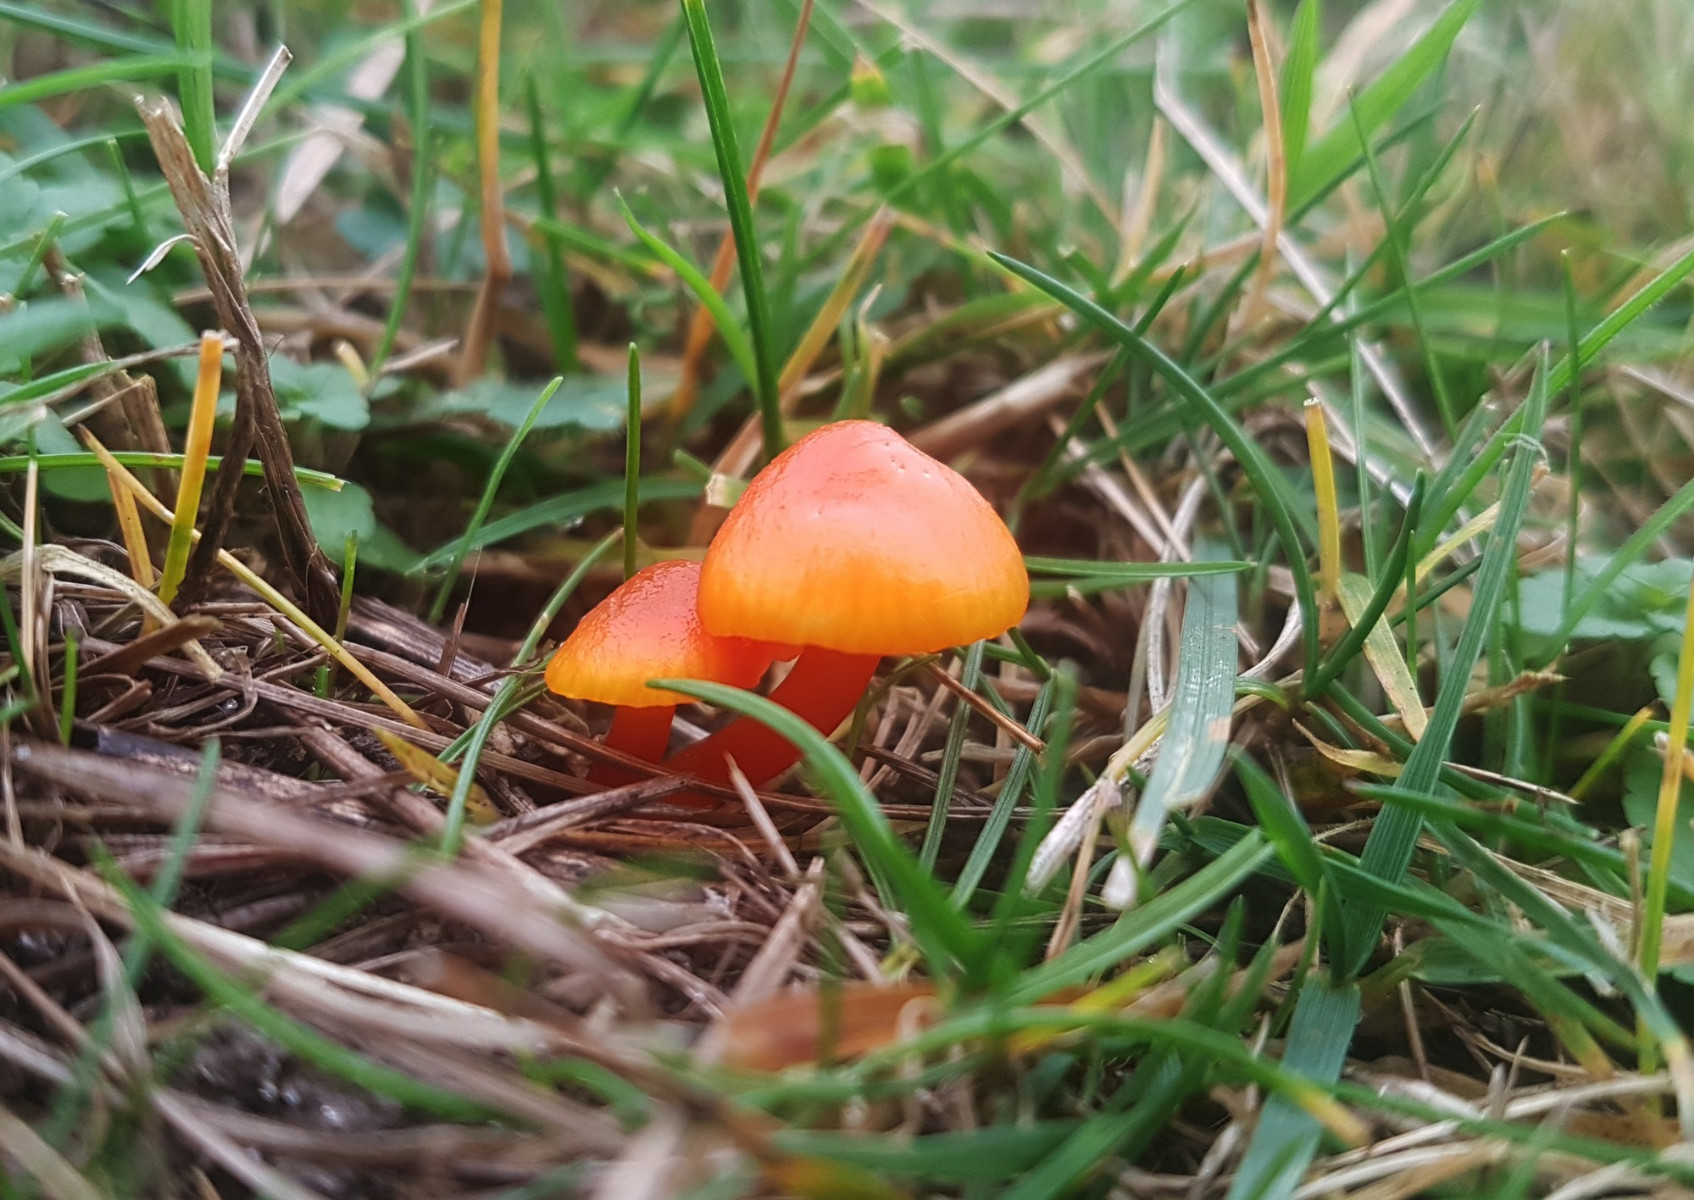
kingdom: Fungi
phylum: Basidiomycota
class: Agaricomycetes
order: Agaricales
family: Hygrophoraceae
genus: Hygrocybe
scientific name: Hygrocybe miniata
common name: mønje-vokshat
